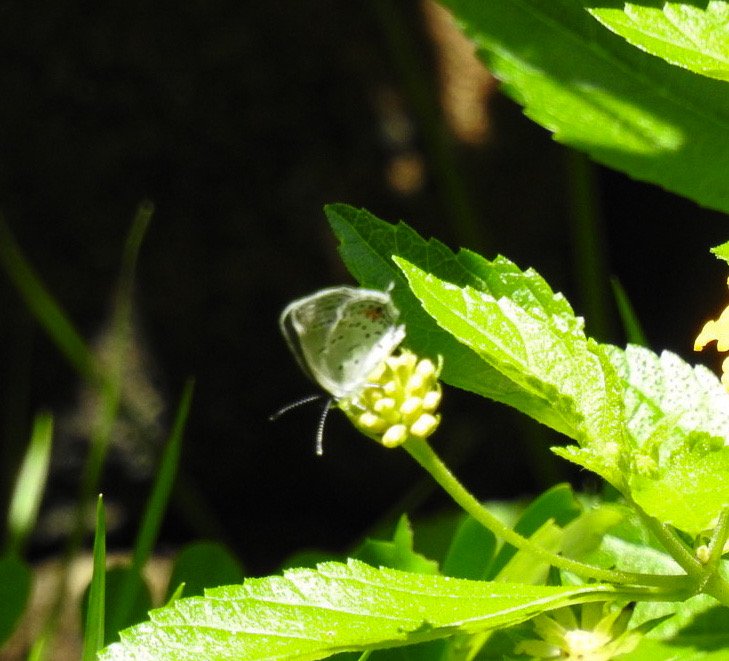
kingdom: Animalia
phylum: Arthropoda
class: Insecta
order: Lepidoptera
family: Lycaenidae
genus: Elkalyce
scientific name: Elkalyce comyntas
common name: Eastern Tailed-Blue
